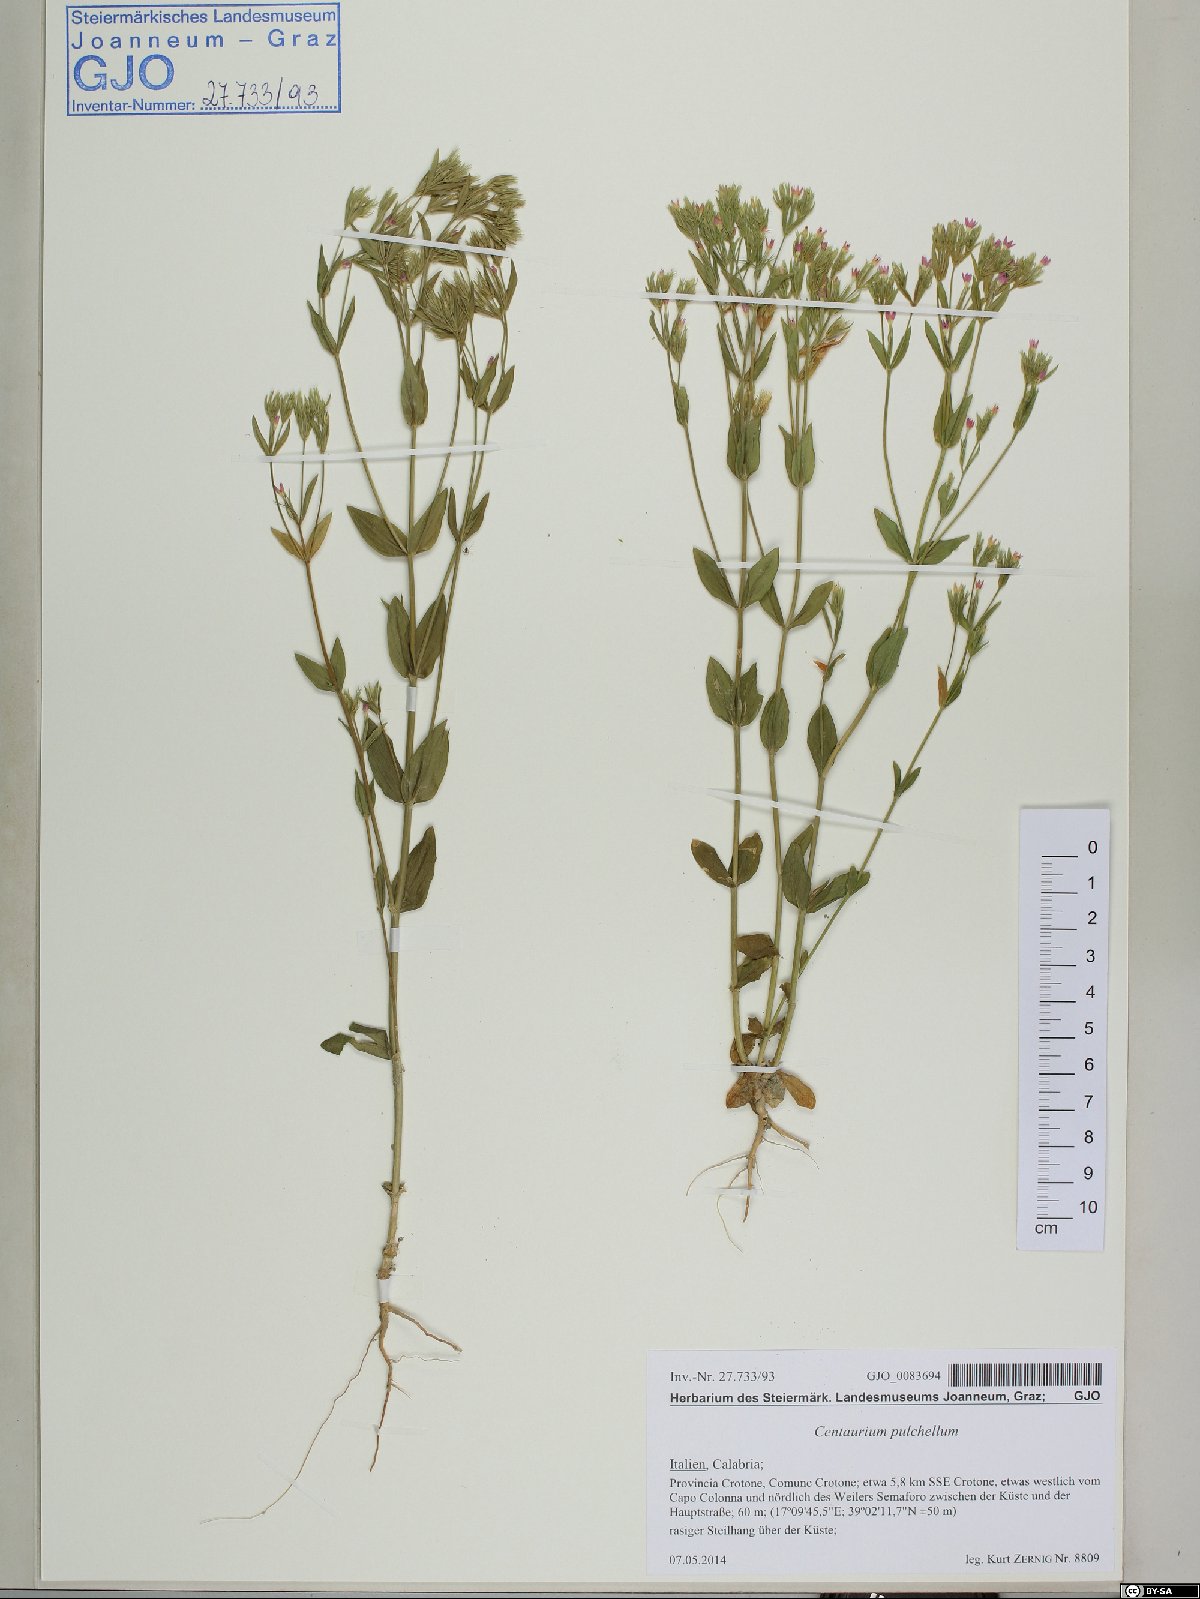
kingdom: Plantae
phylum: Tracheophyta
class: Magnoliopsida
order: Gentianales
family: Gentianaceae
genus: Centaurium
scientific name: Centaurium pulchellum
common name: Lesser centaury
